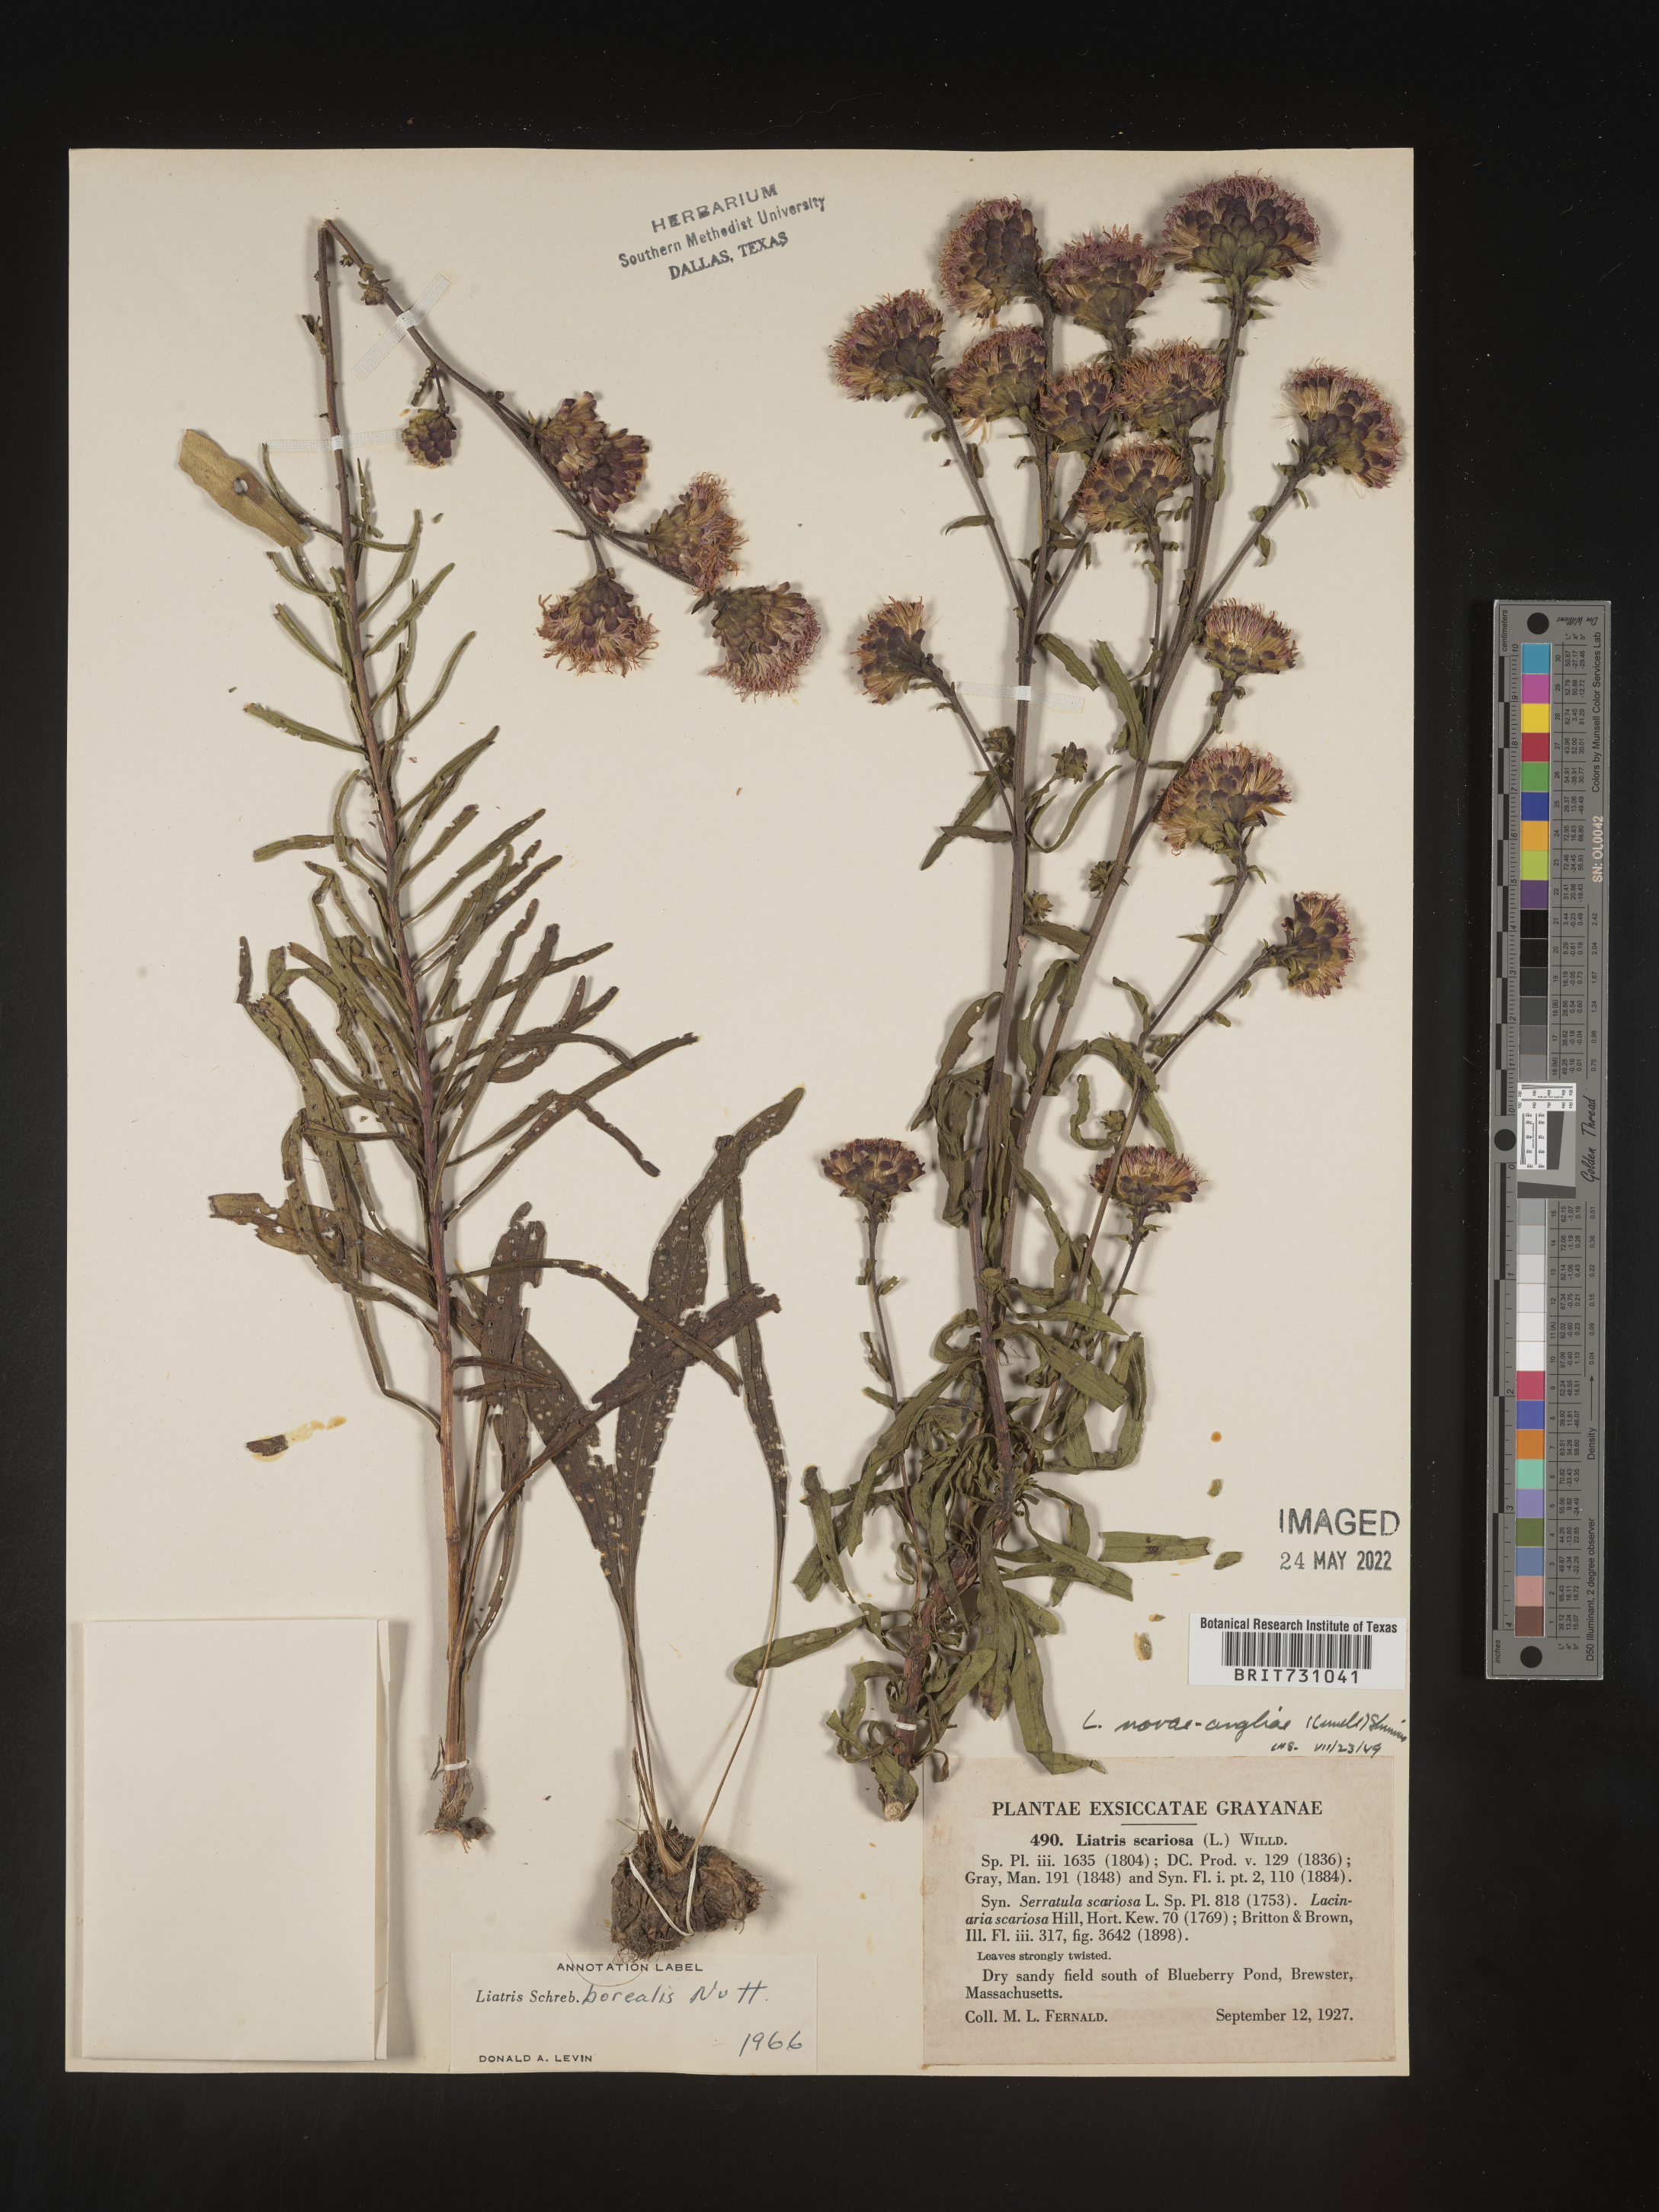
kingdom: Plantae
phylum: Tracheophyta
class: Magnoliopsida
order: Asterales
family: Asteraceae
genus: Liatris
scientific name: Liatris scariosa
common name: Northern gayfeather
